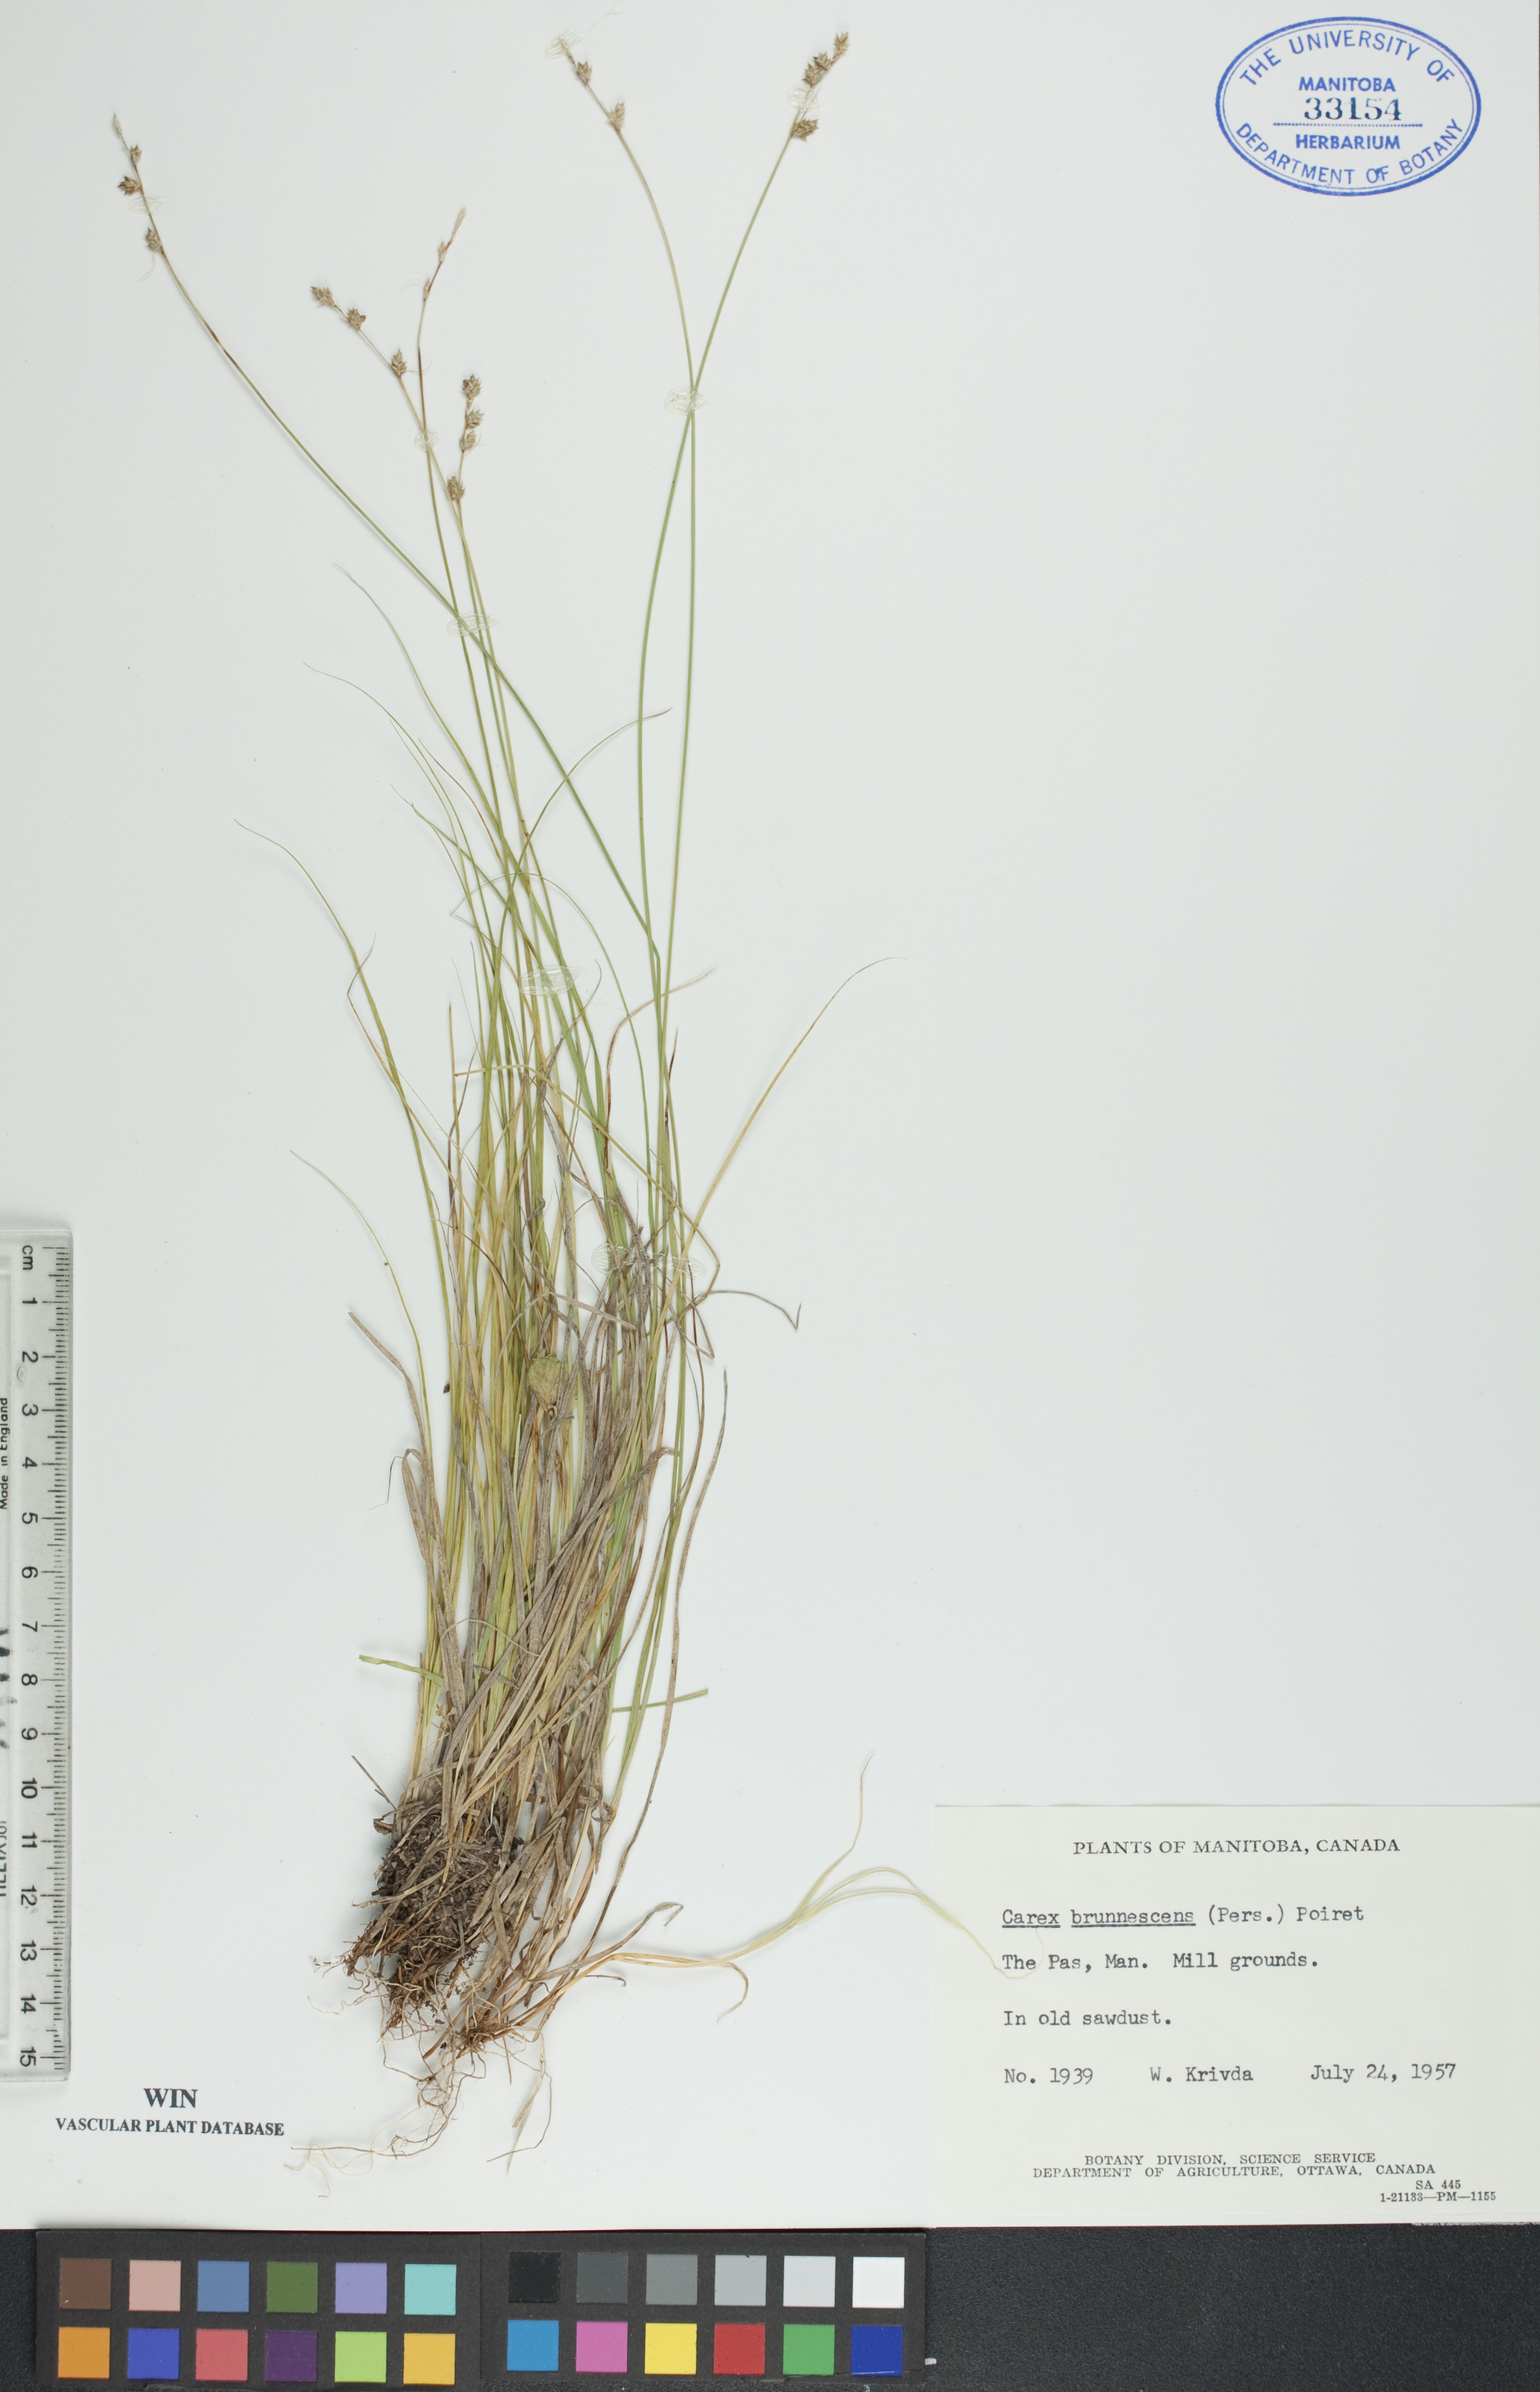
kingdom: Plantae
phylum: Tracheophyta
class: Liliopsida
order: Poales
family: Cyperaceae
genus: Carex
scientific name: Carex brunnescens
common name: Brown sedge
